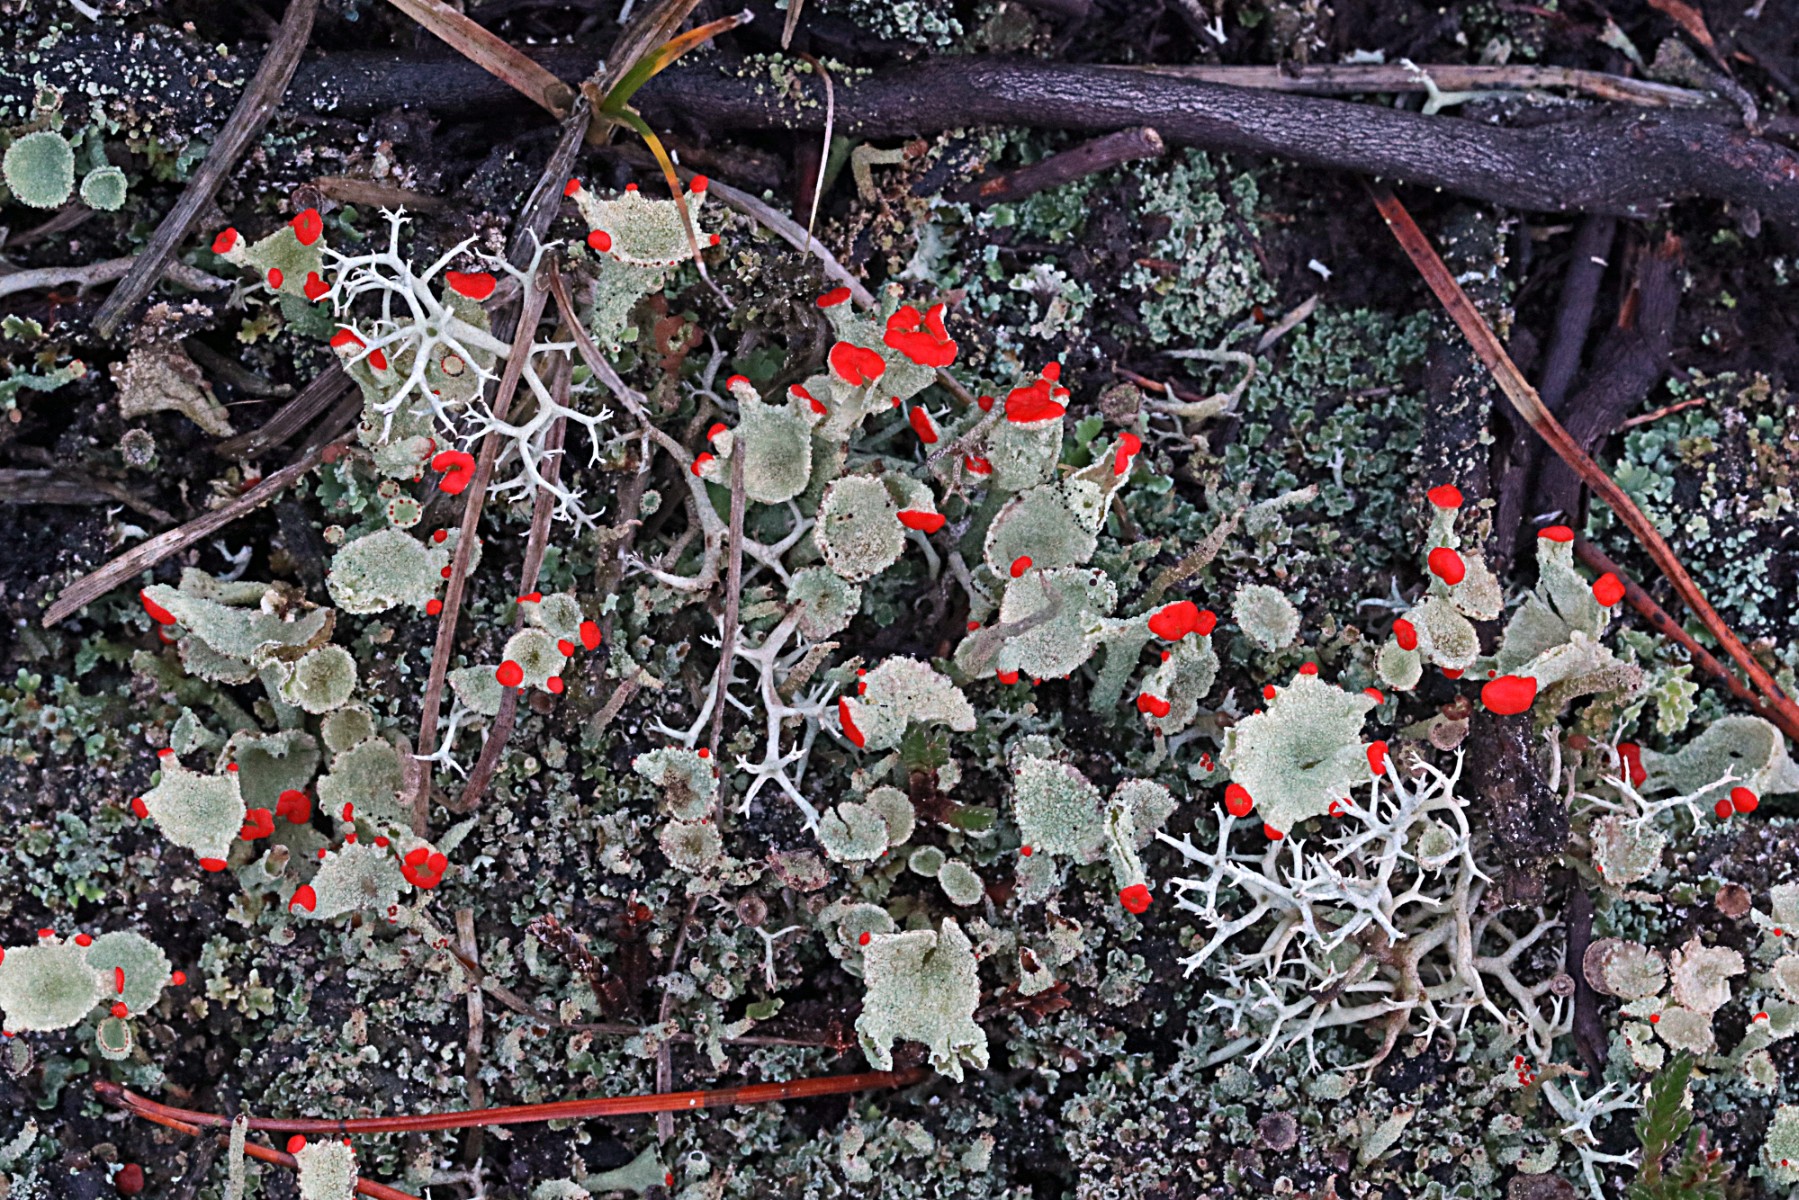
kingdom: Fungi
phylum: Ascomycota
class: Lecanoromycetes
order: Lecanorales
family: Cladoniaceae
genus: Cladonia
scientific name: Cladonia diversa
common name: rød bægerlav
